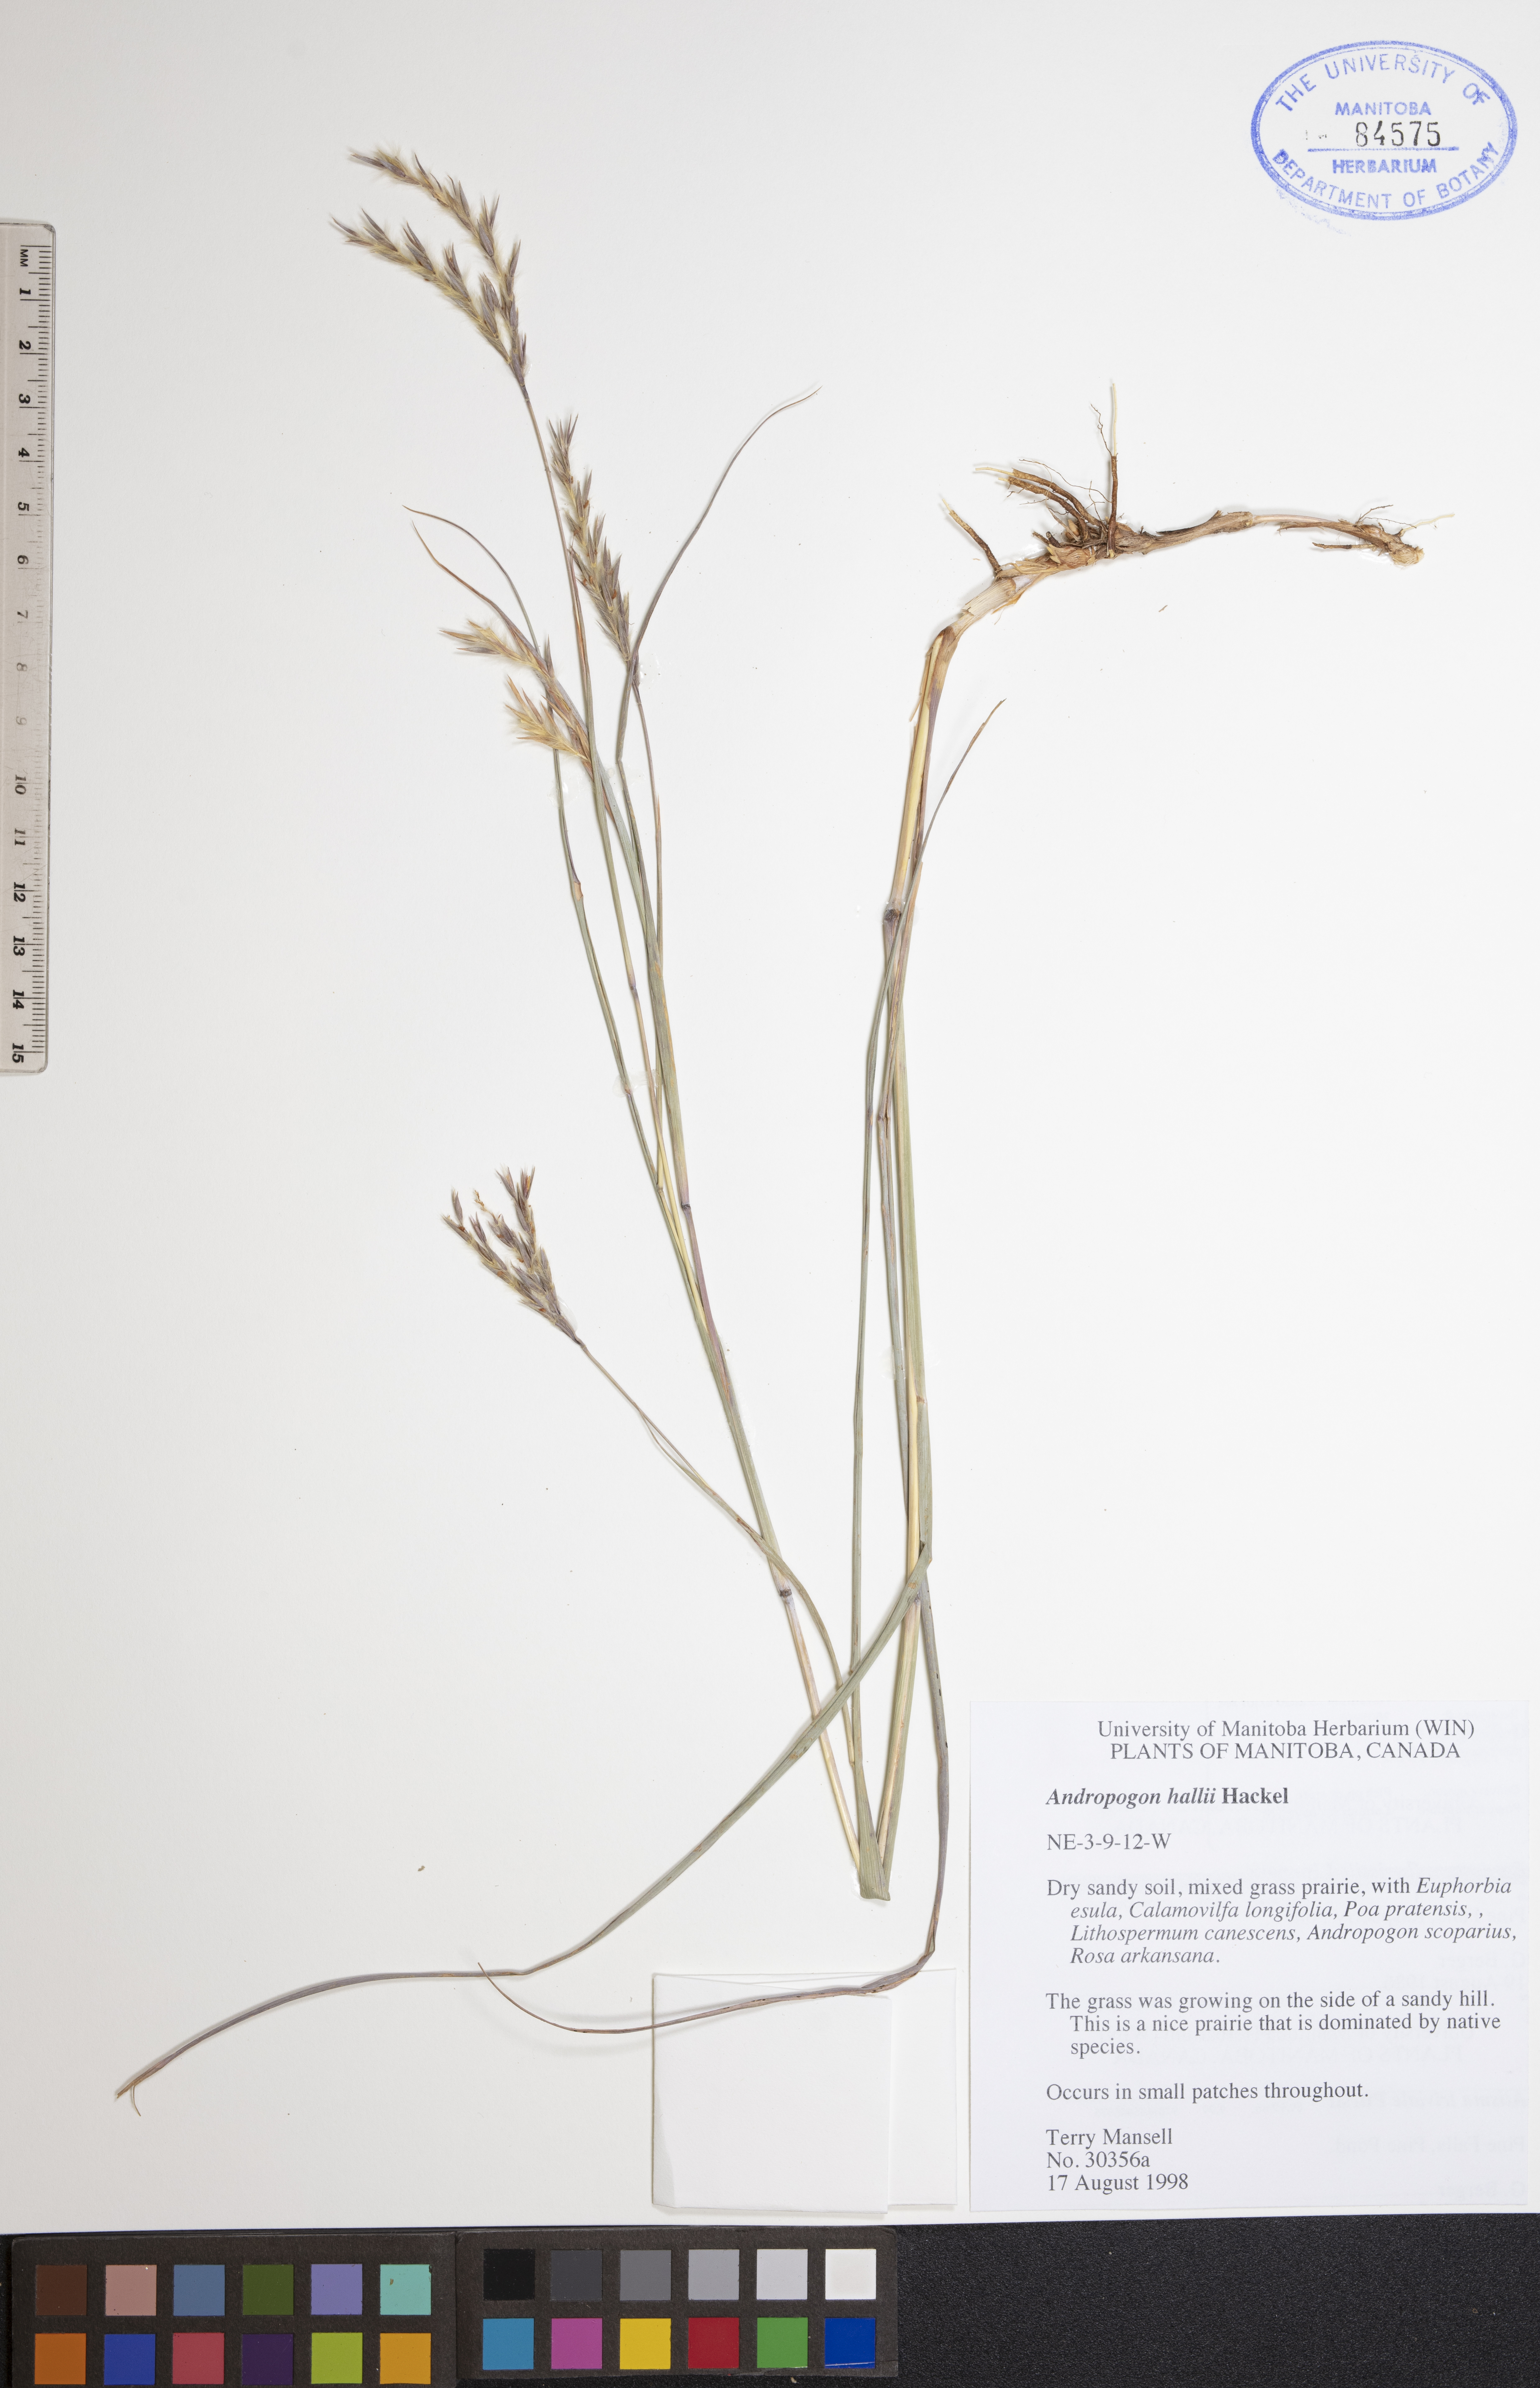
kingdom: Plantae
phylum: Tracheophyta
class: Liliopsida
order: Poales
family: Poaceae
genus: Andropogon
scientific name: Andropogon hallii
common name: Sand bluestem
